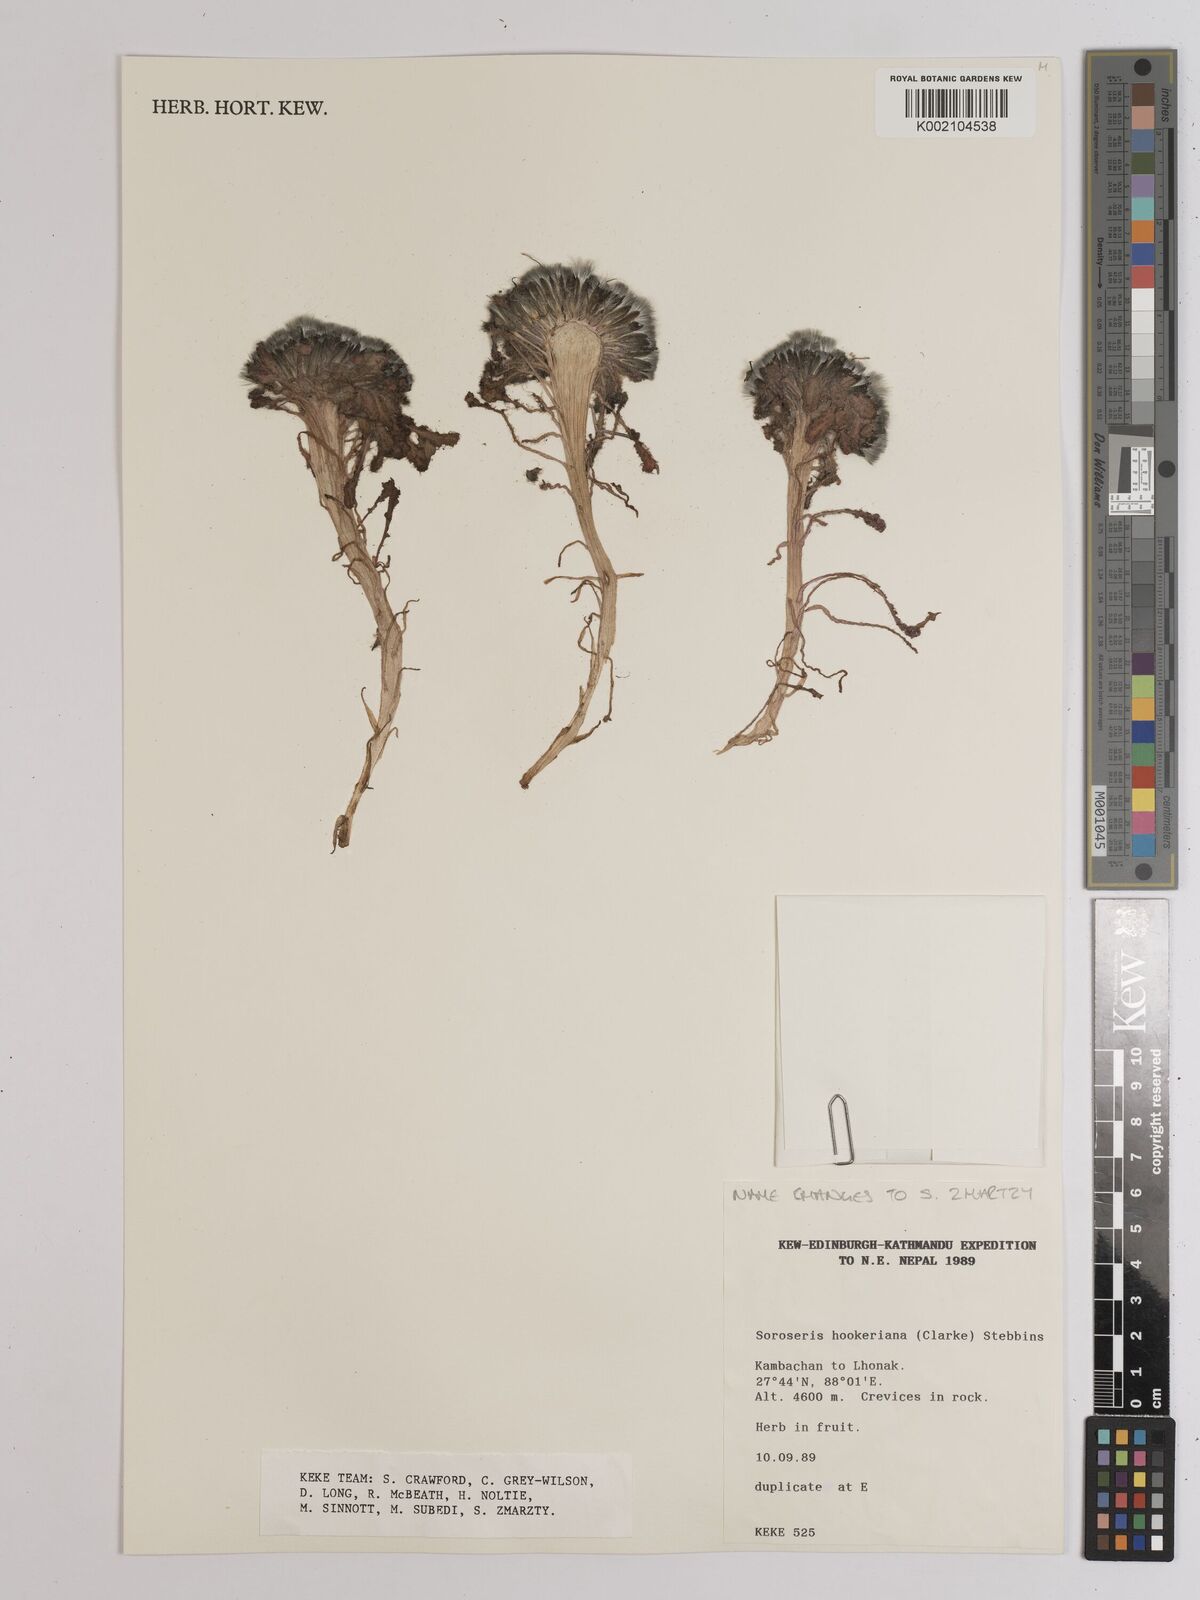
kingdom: Plantae
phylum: Tracheophyta
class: Magnoliopsida
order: Asterales
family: Asteraceae
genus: Soroseris
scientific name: Soroseris hookeriana
